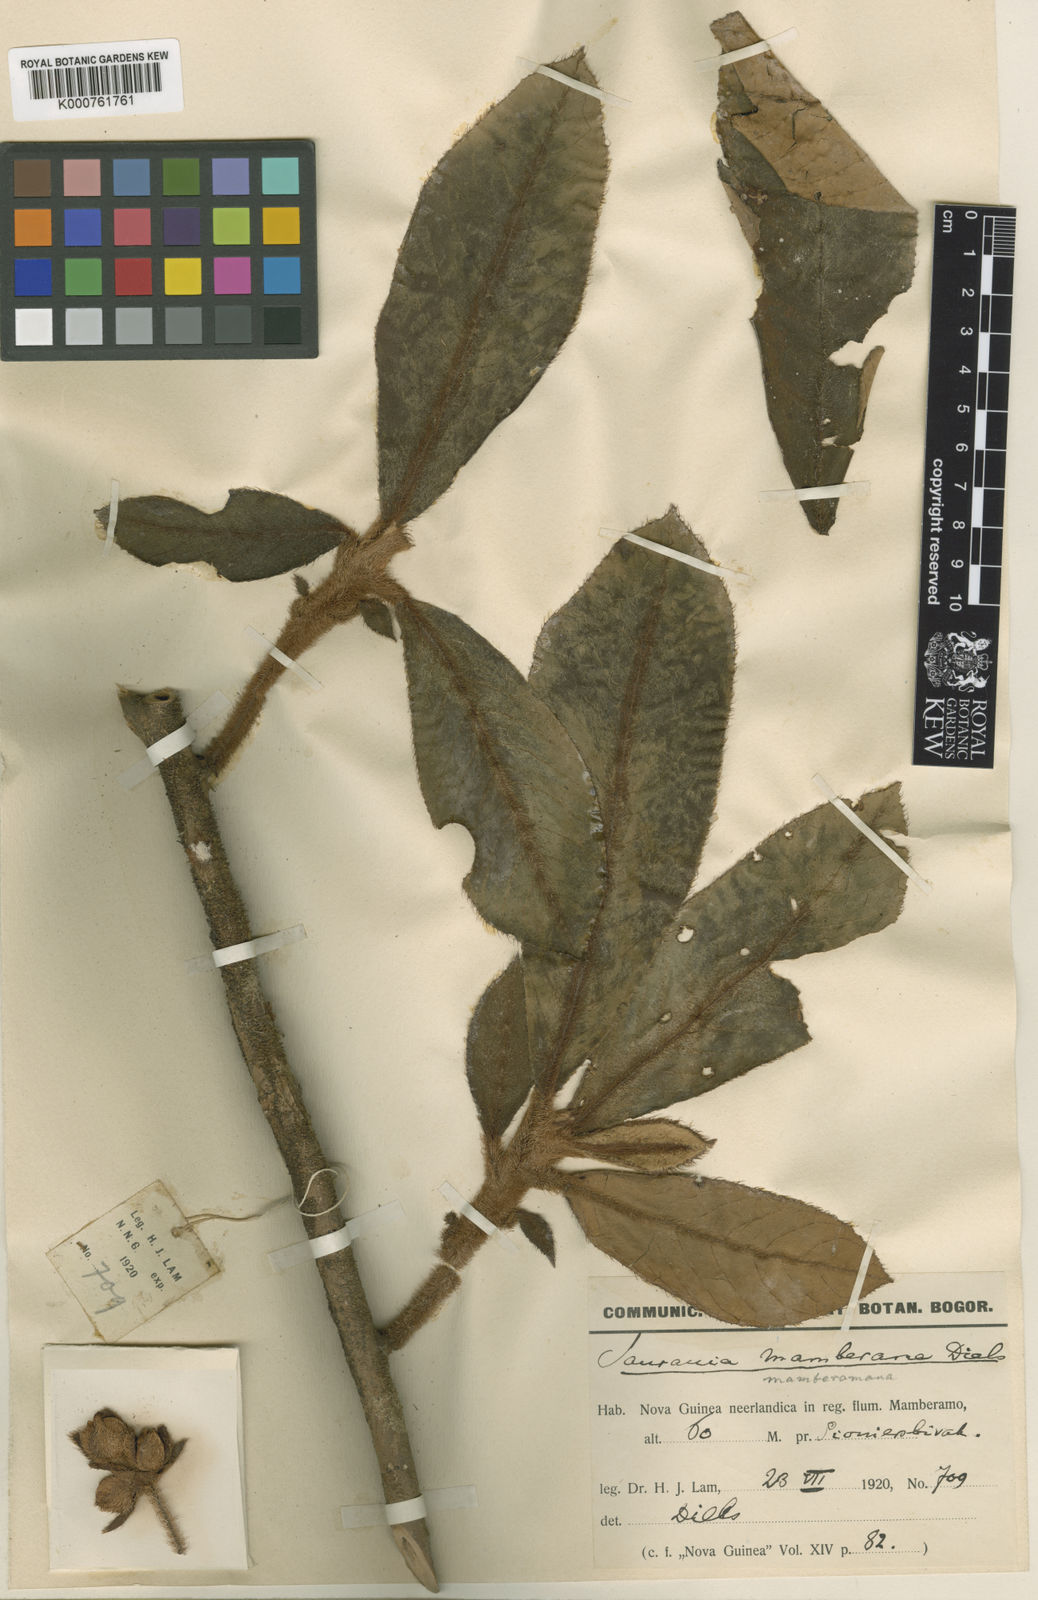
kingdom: Plantae
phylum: Tracheophyta
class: Magnoliopsida
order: Ericales
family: Actinidiaceae
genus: Saurauia
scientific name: Saurauia
